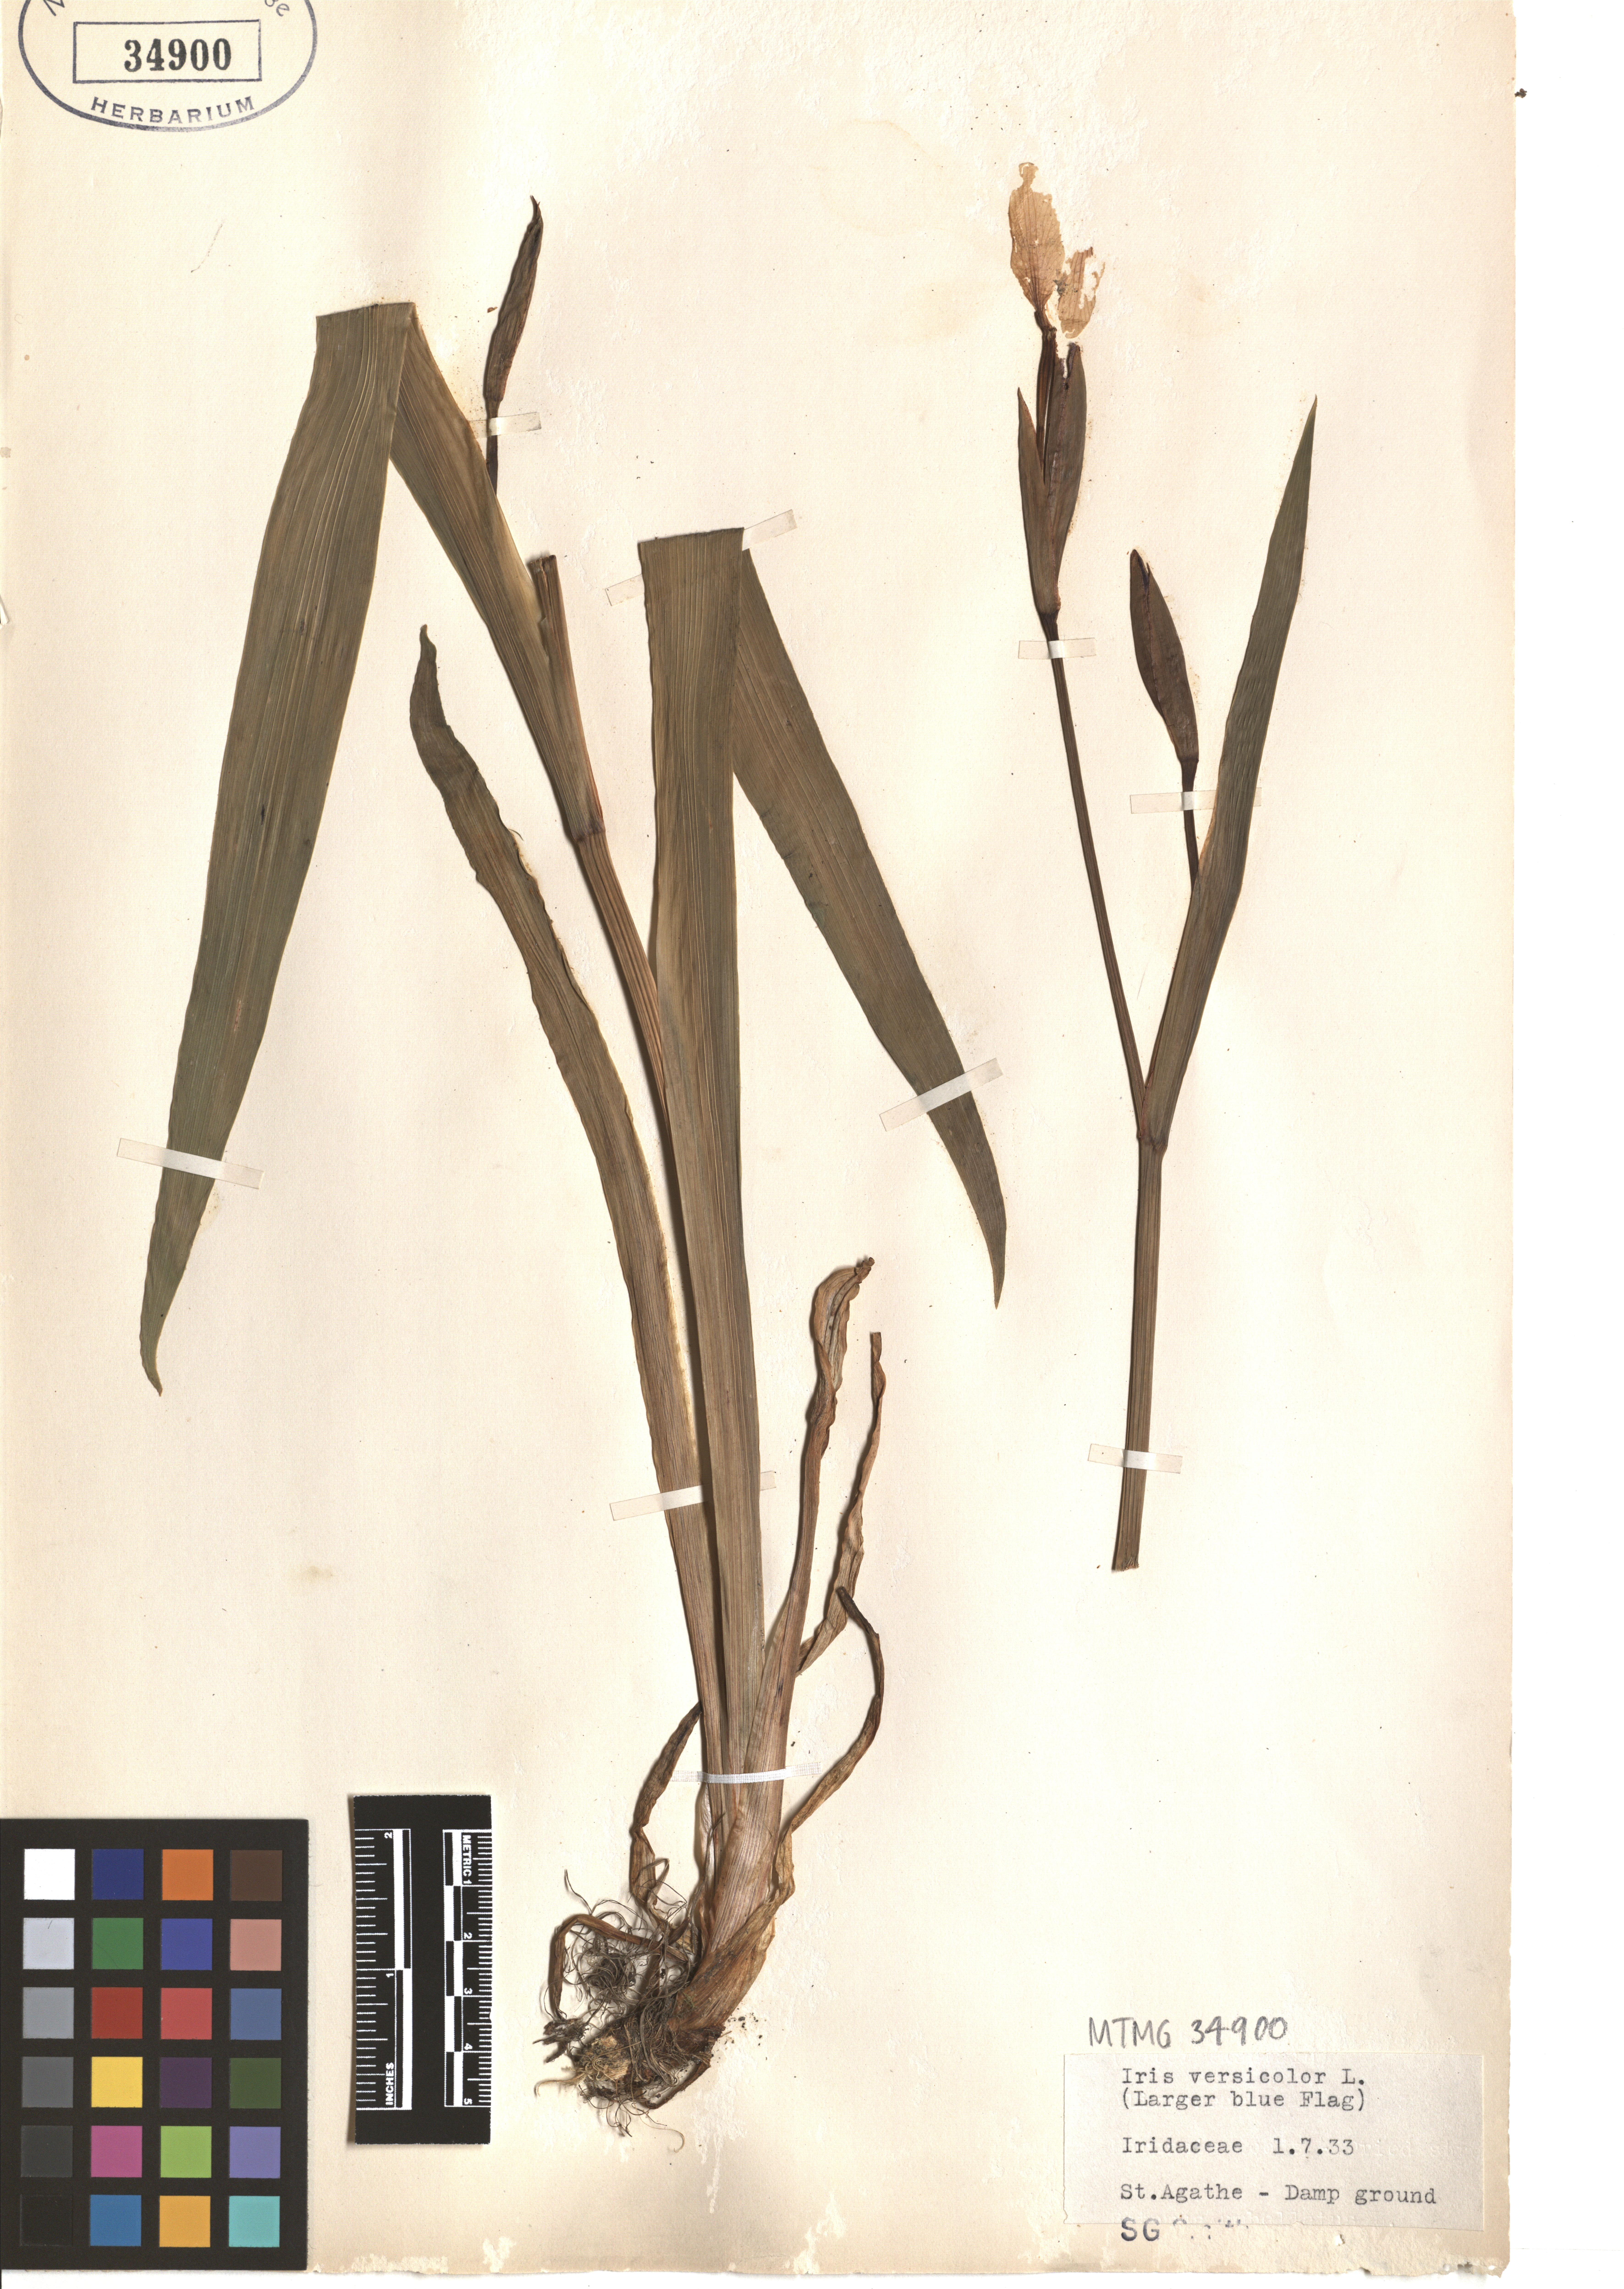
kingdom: Plantae
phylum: Tracheophyta
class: Liliopsida
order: Asparagales
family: Iridaceae
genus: Iris
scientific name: Iris versicolor
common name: Purple iris
